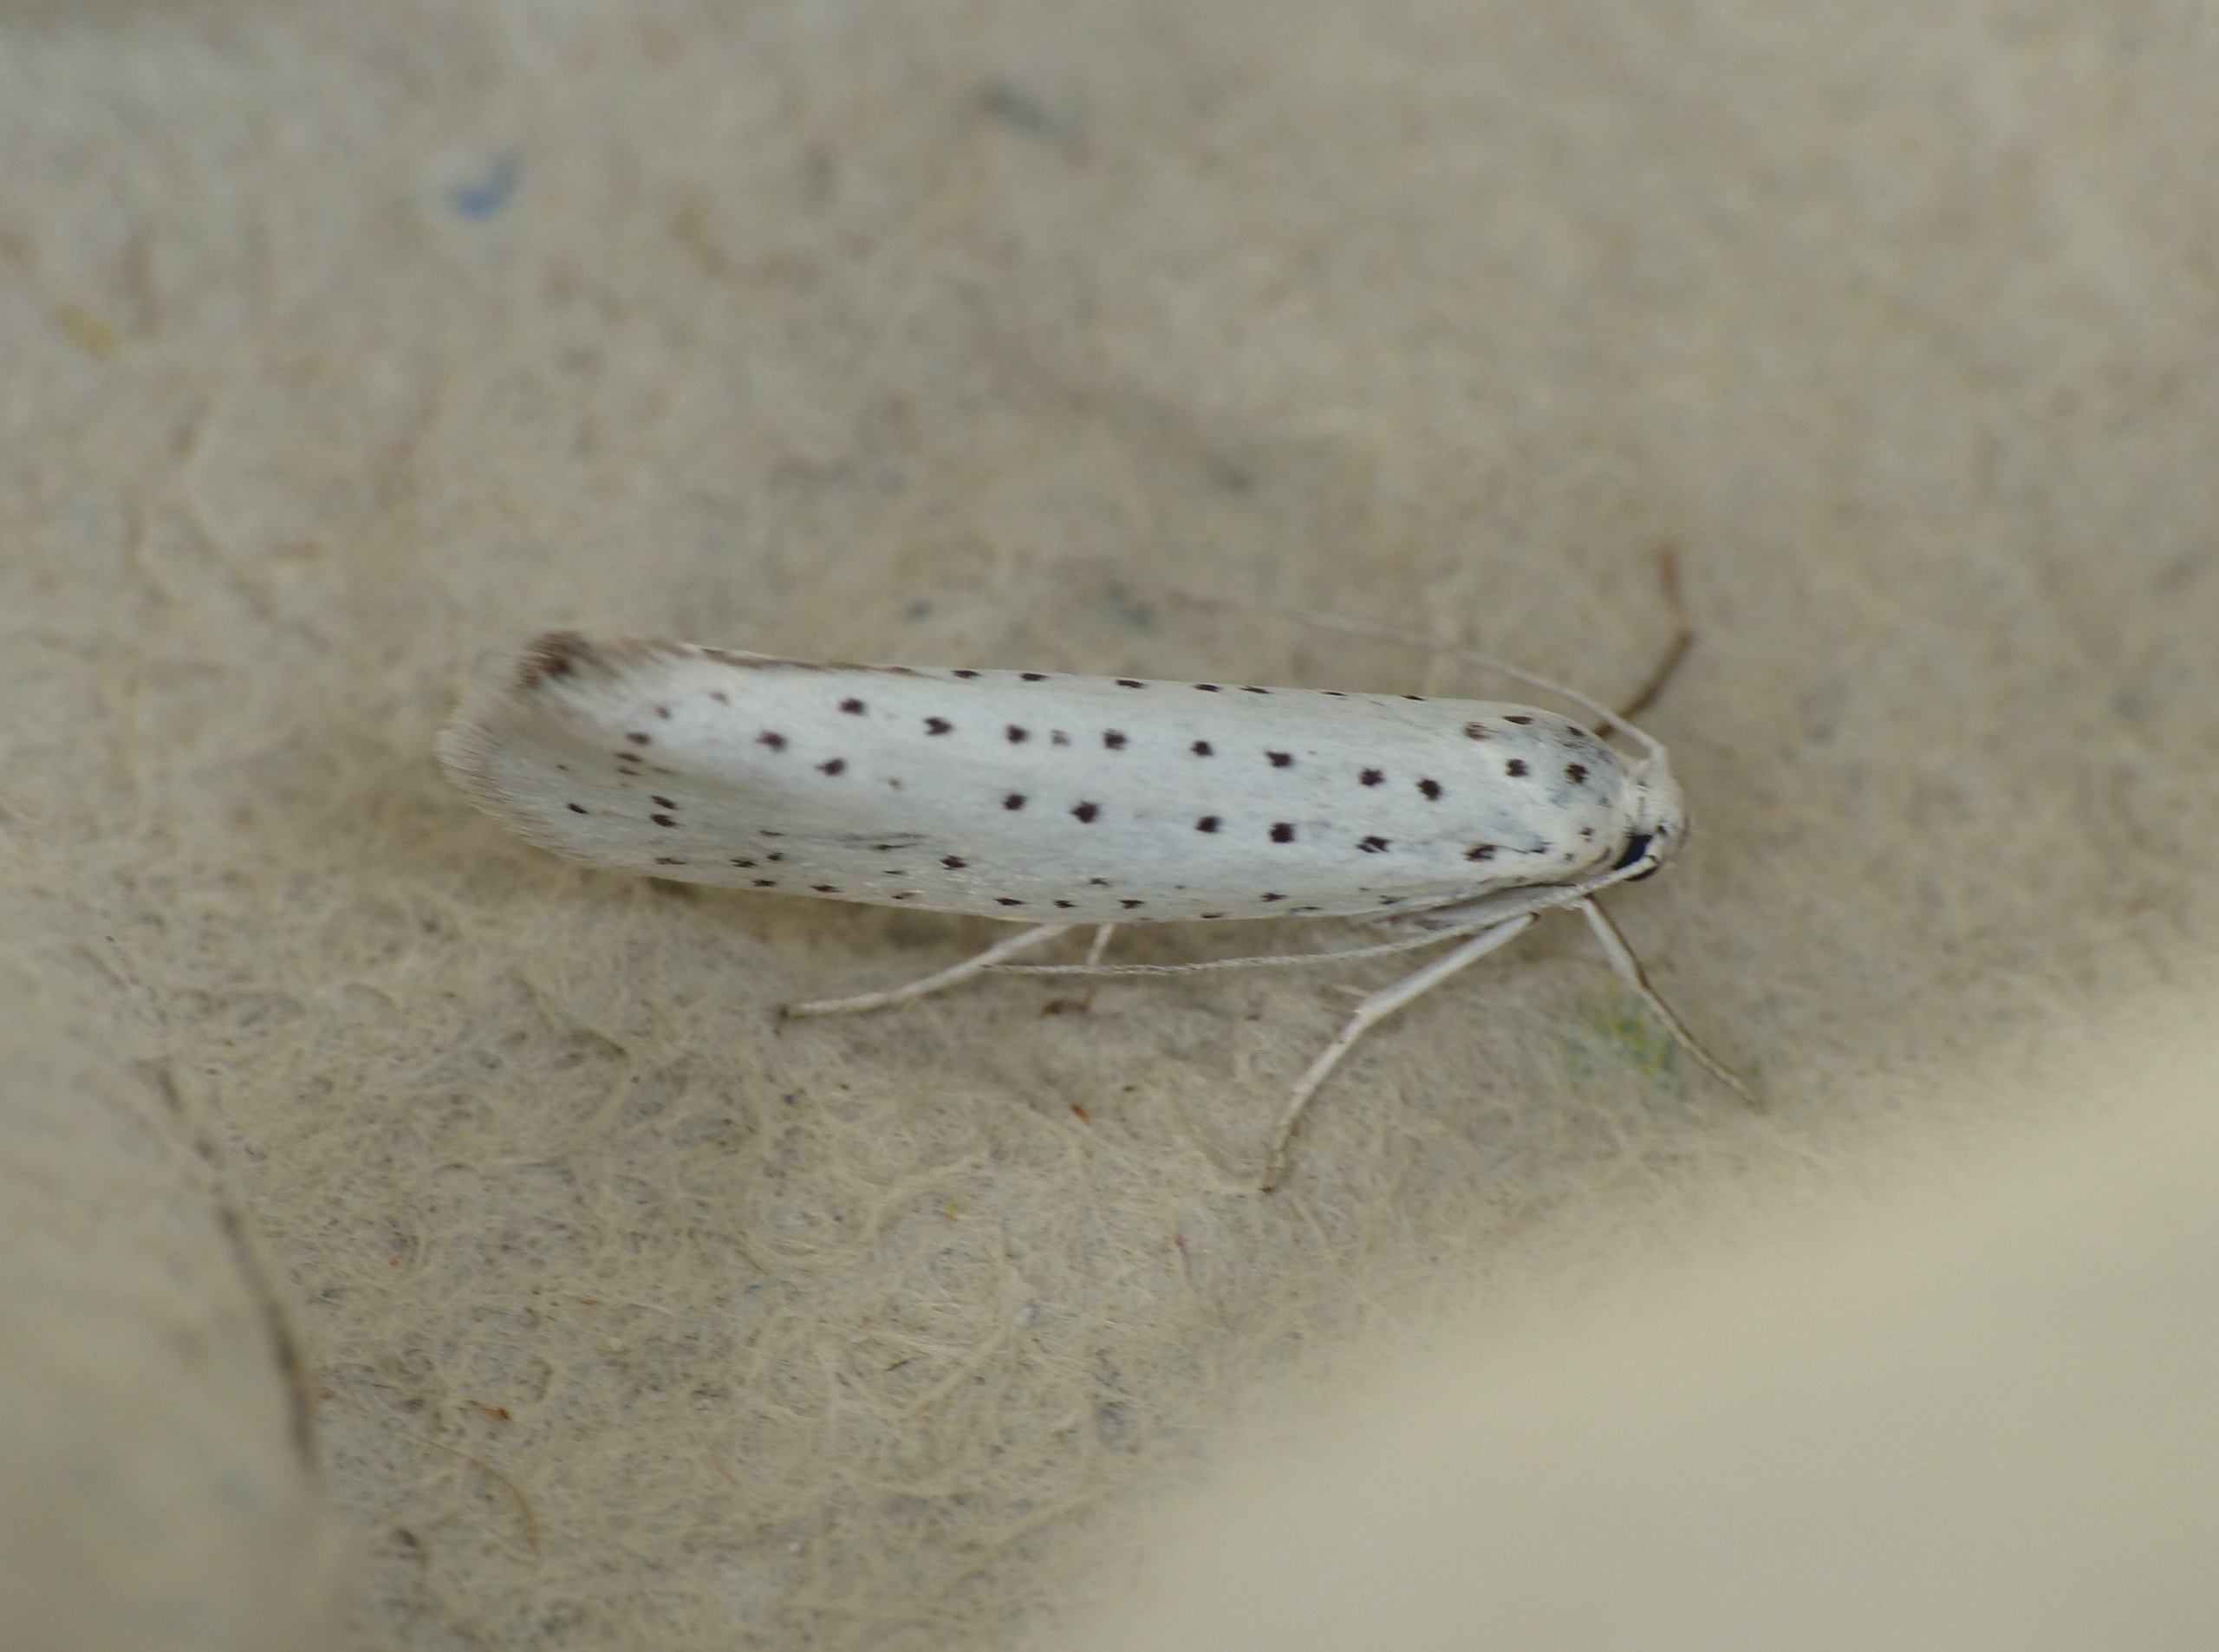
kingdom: Animalia
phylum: Arthropoda
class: Insecta
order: Lepidoptera
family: Yponomeutidae
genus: Yponomeuta
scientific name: Yponomeuta evonymella
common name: Hægspindemøl
